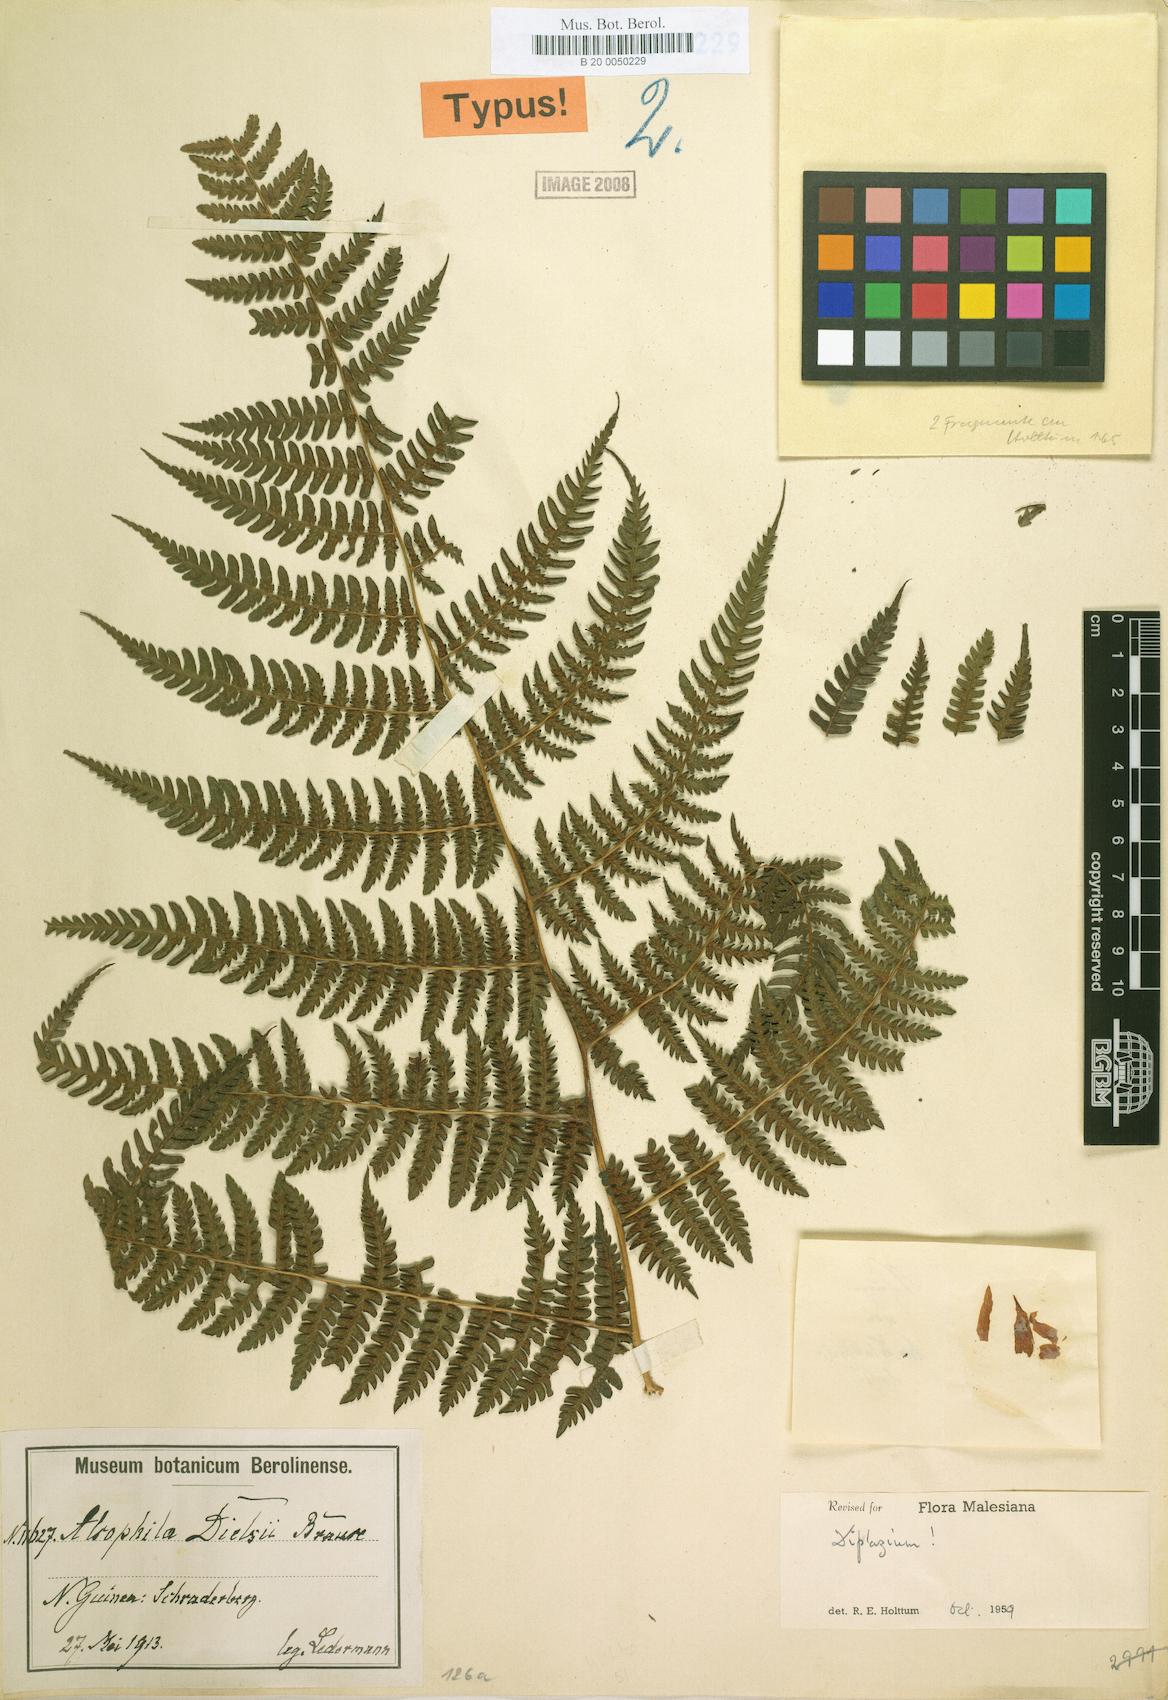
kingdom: Plantae
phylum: Tracheophyta
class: Polypodiopsida
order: Polypodiales
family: Athyriaceae
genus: Diplazium
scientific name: Diplazium dielsii
